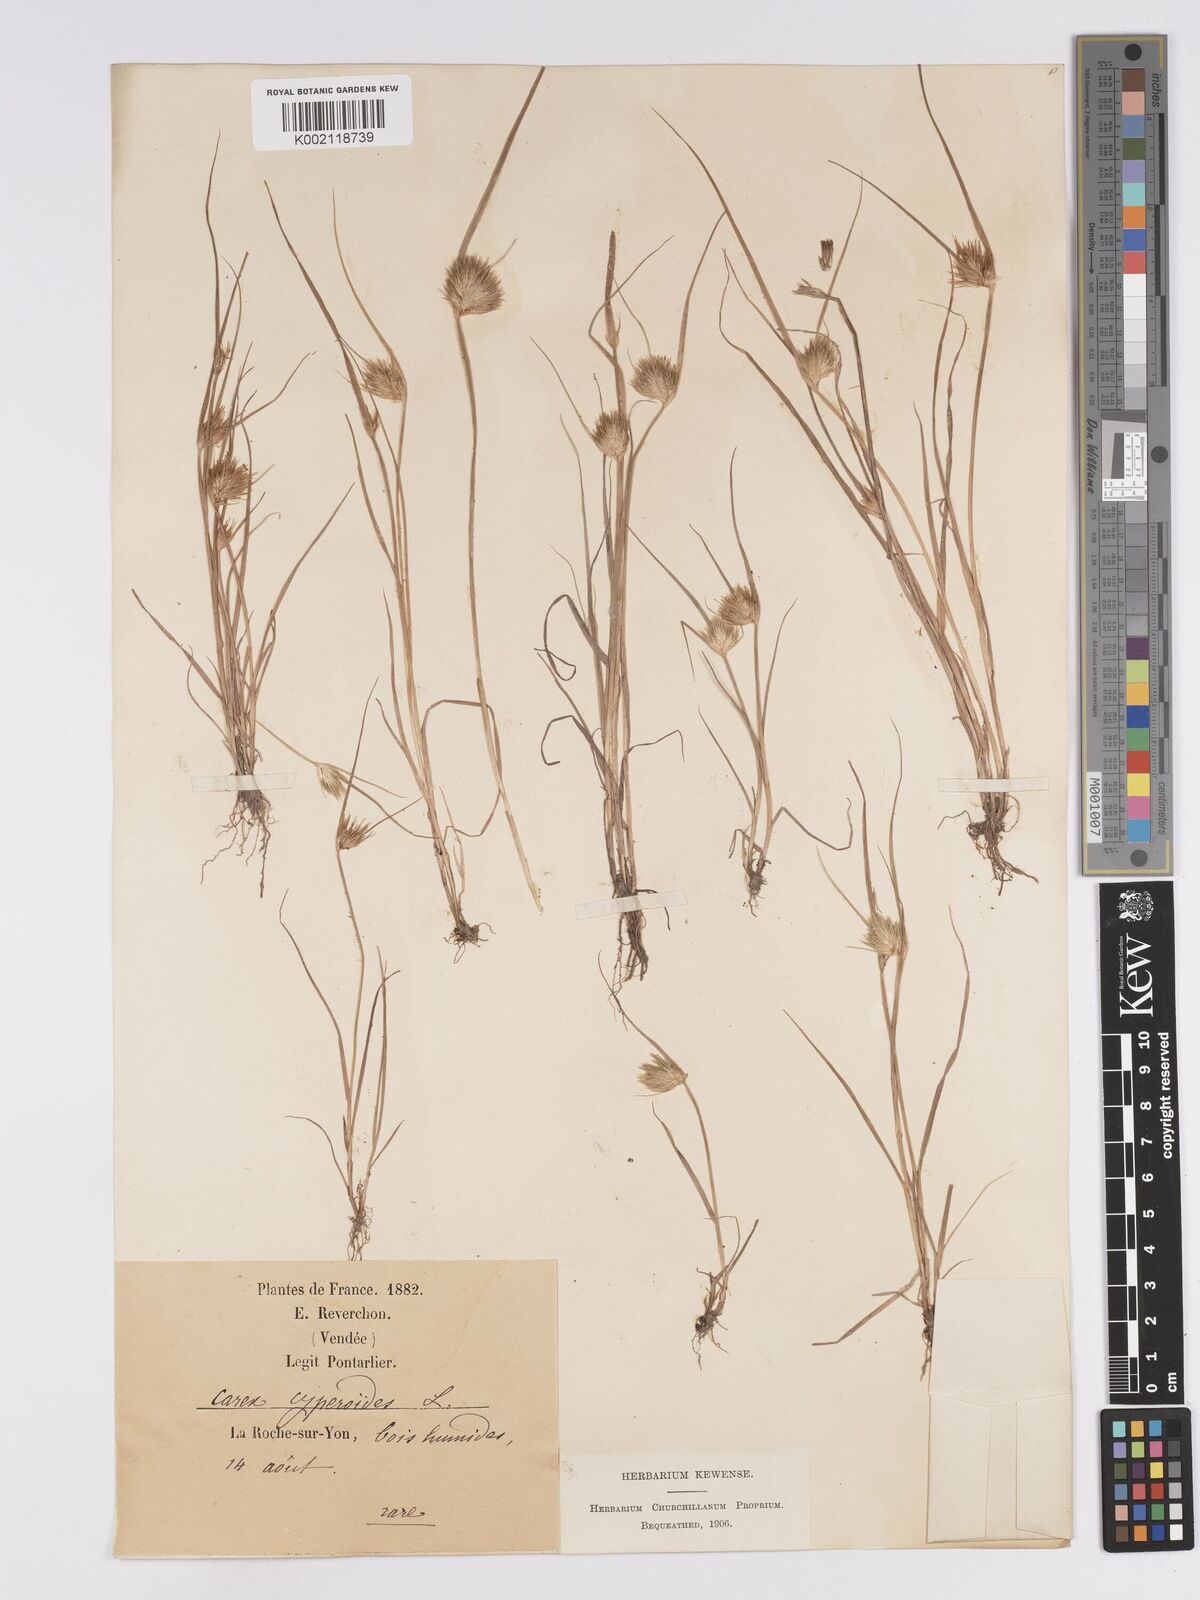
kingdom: Plantae
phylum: Tracheophyta
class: Liliopsida
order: Poales
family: Cyperaceae
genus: Carex
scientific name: Carex bohemica
